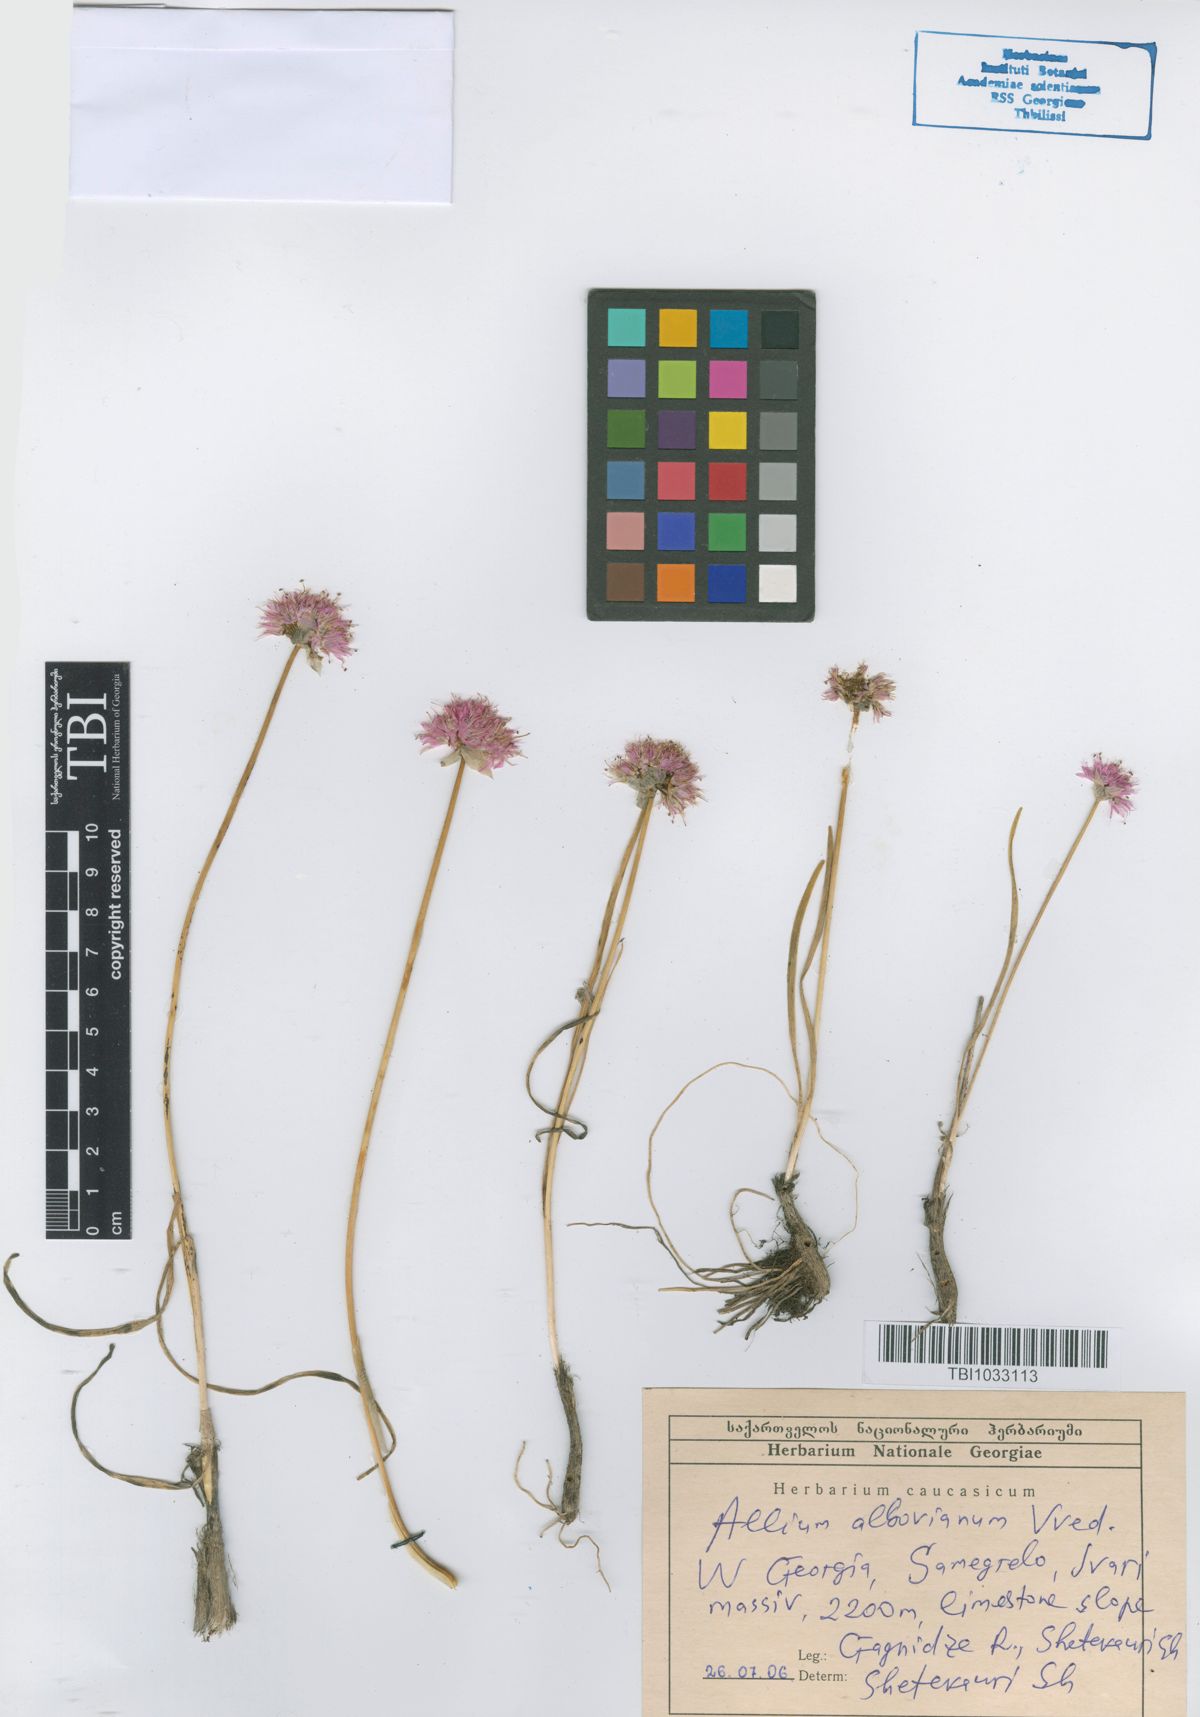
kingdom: Plantae
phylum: Tracheophyta
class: Liliopsida
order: Asparagales
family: Amaryllidaceae
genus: Allium
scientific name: Allium albovianum
